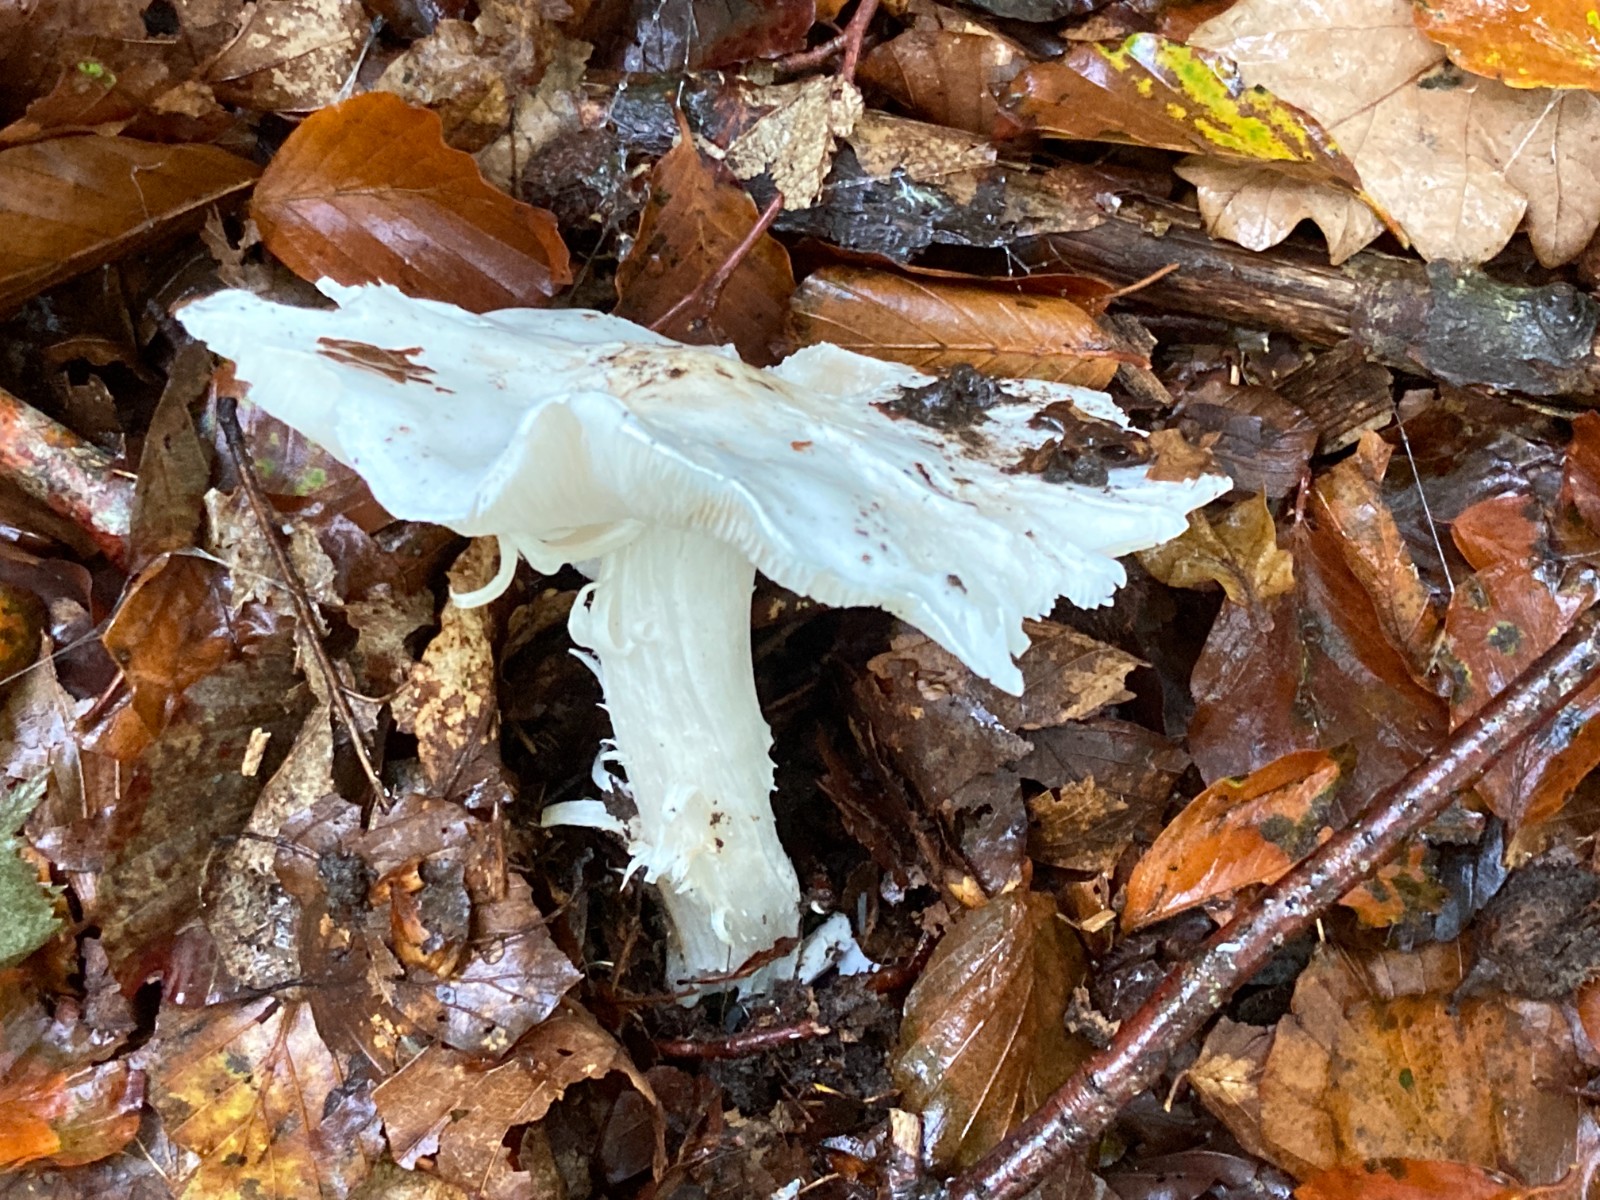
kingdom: Fungi
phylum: Basidiomycota
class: Agaricomycetes
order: Agaricales
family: Tricholomataceae
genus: Tricholoma
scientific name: Tricholoma columbetta
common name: silke-ridderhat
